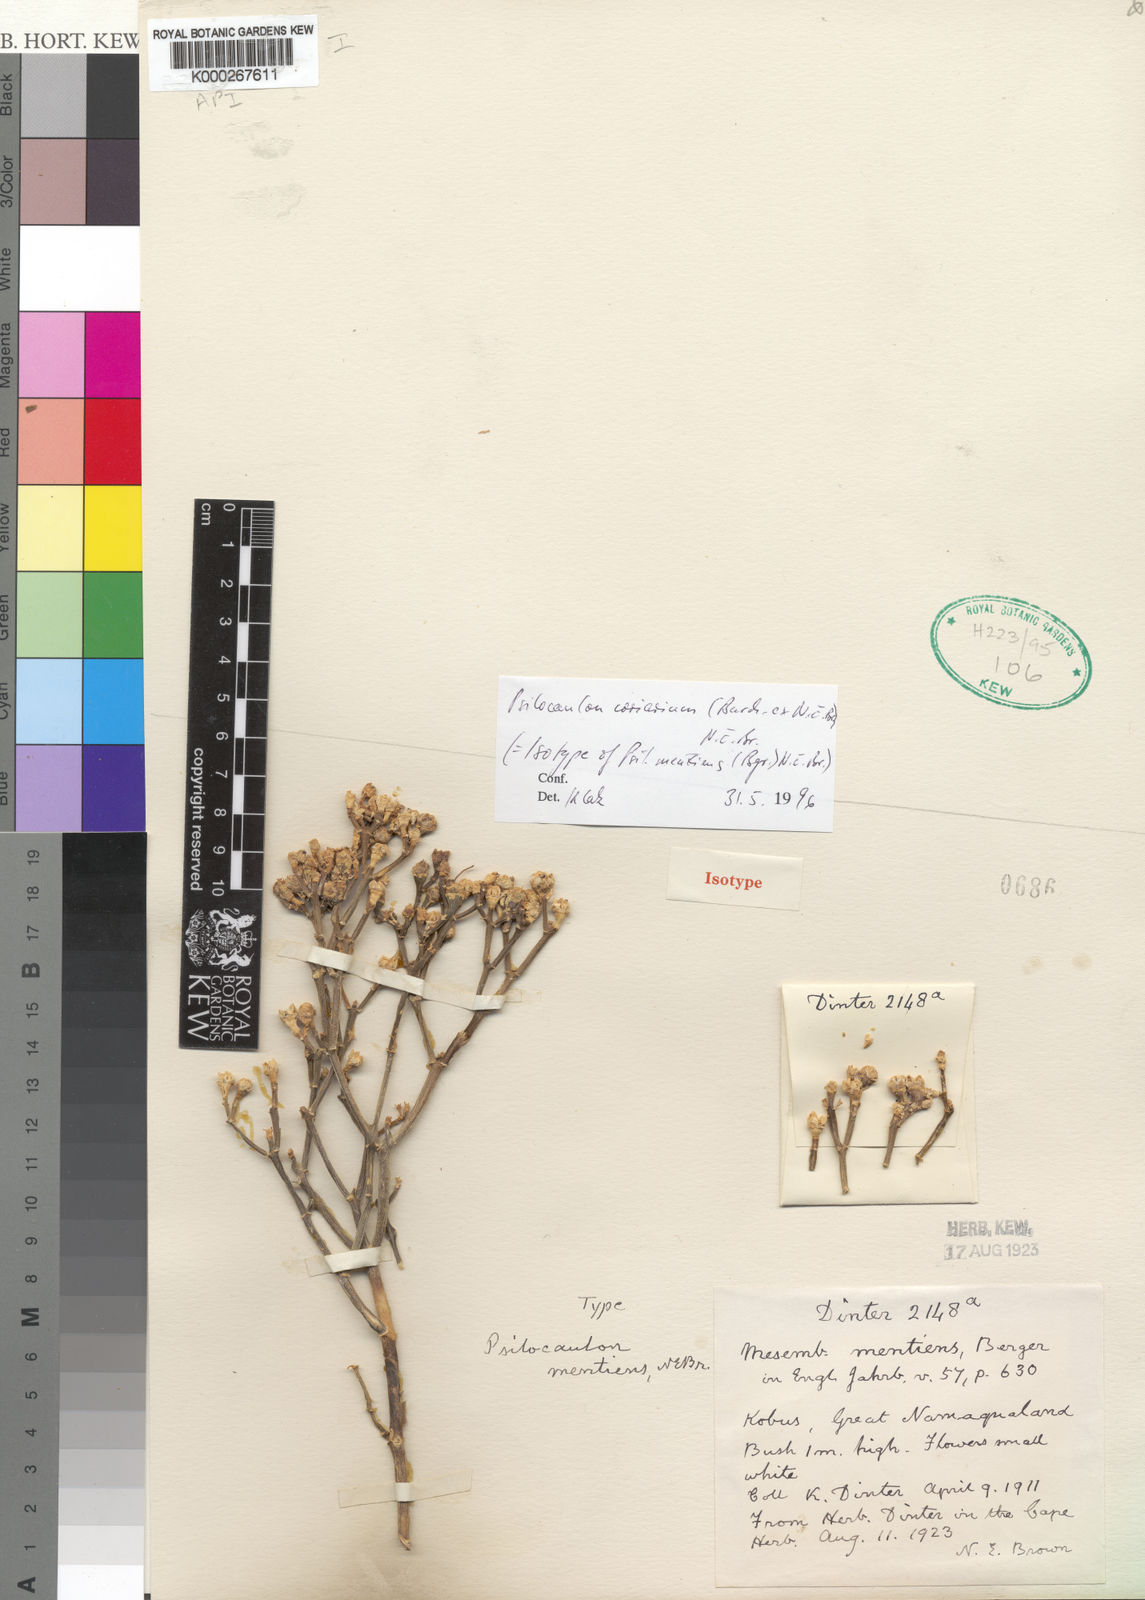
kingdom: Plantae
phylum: Tracheophyta
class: Magnoliopsida
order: Caryophyllales
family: Aizoaceae
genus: Mesembryanthemum
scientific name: Mesembryanthemum coriarium
